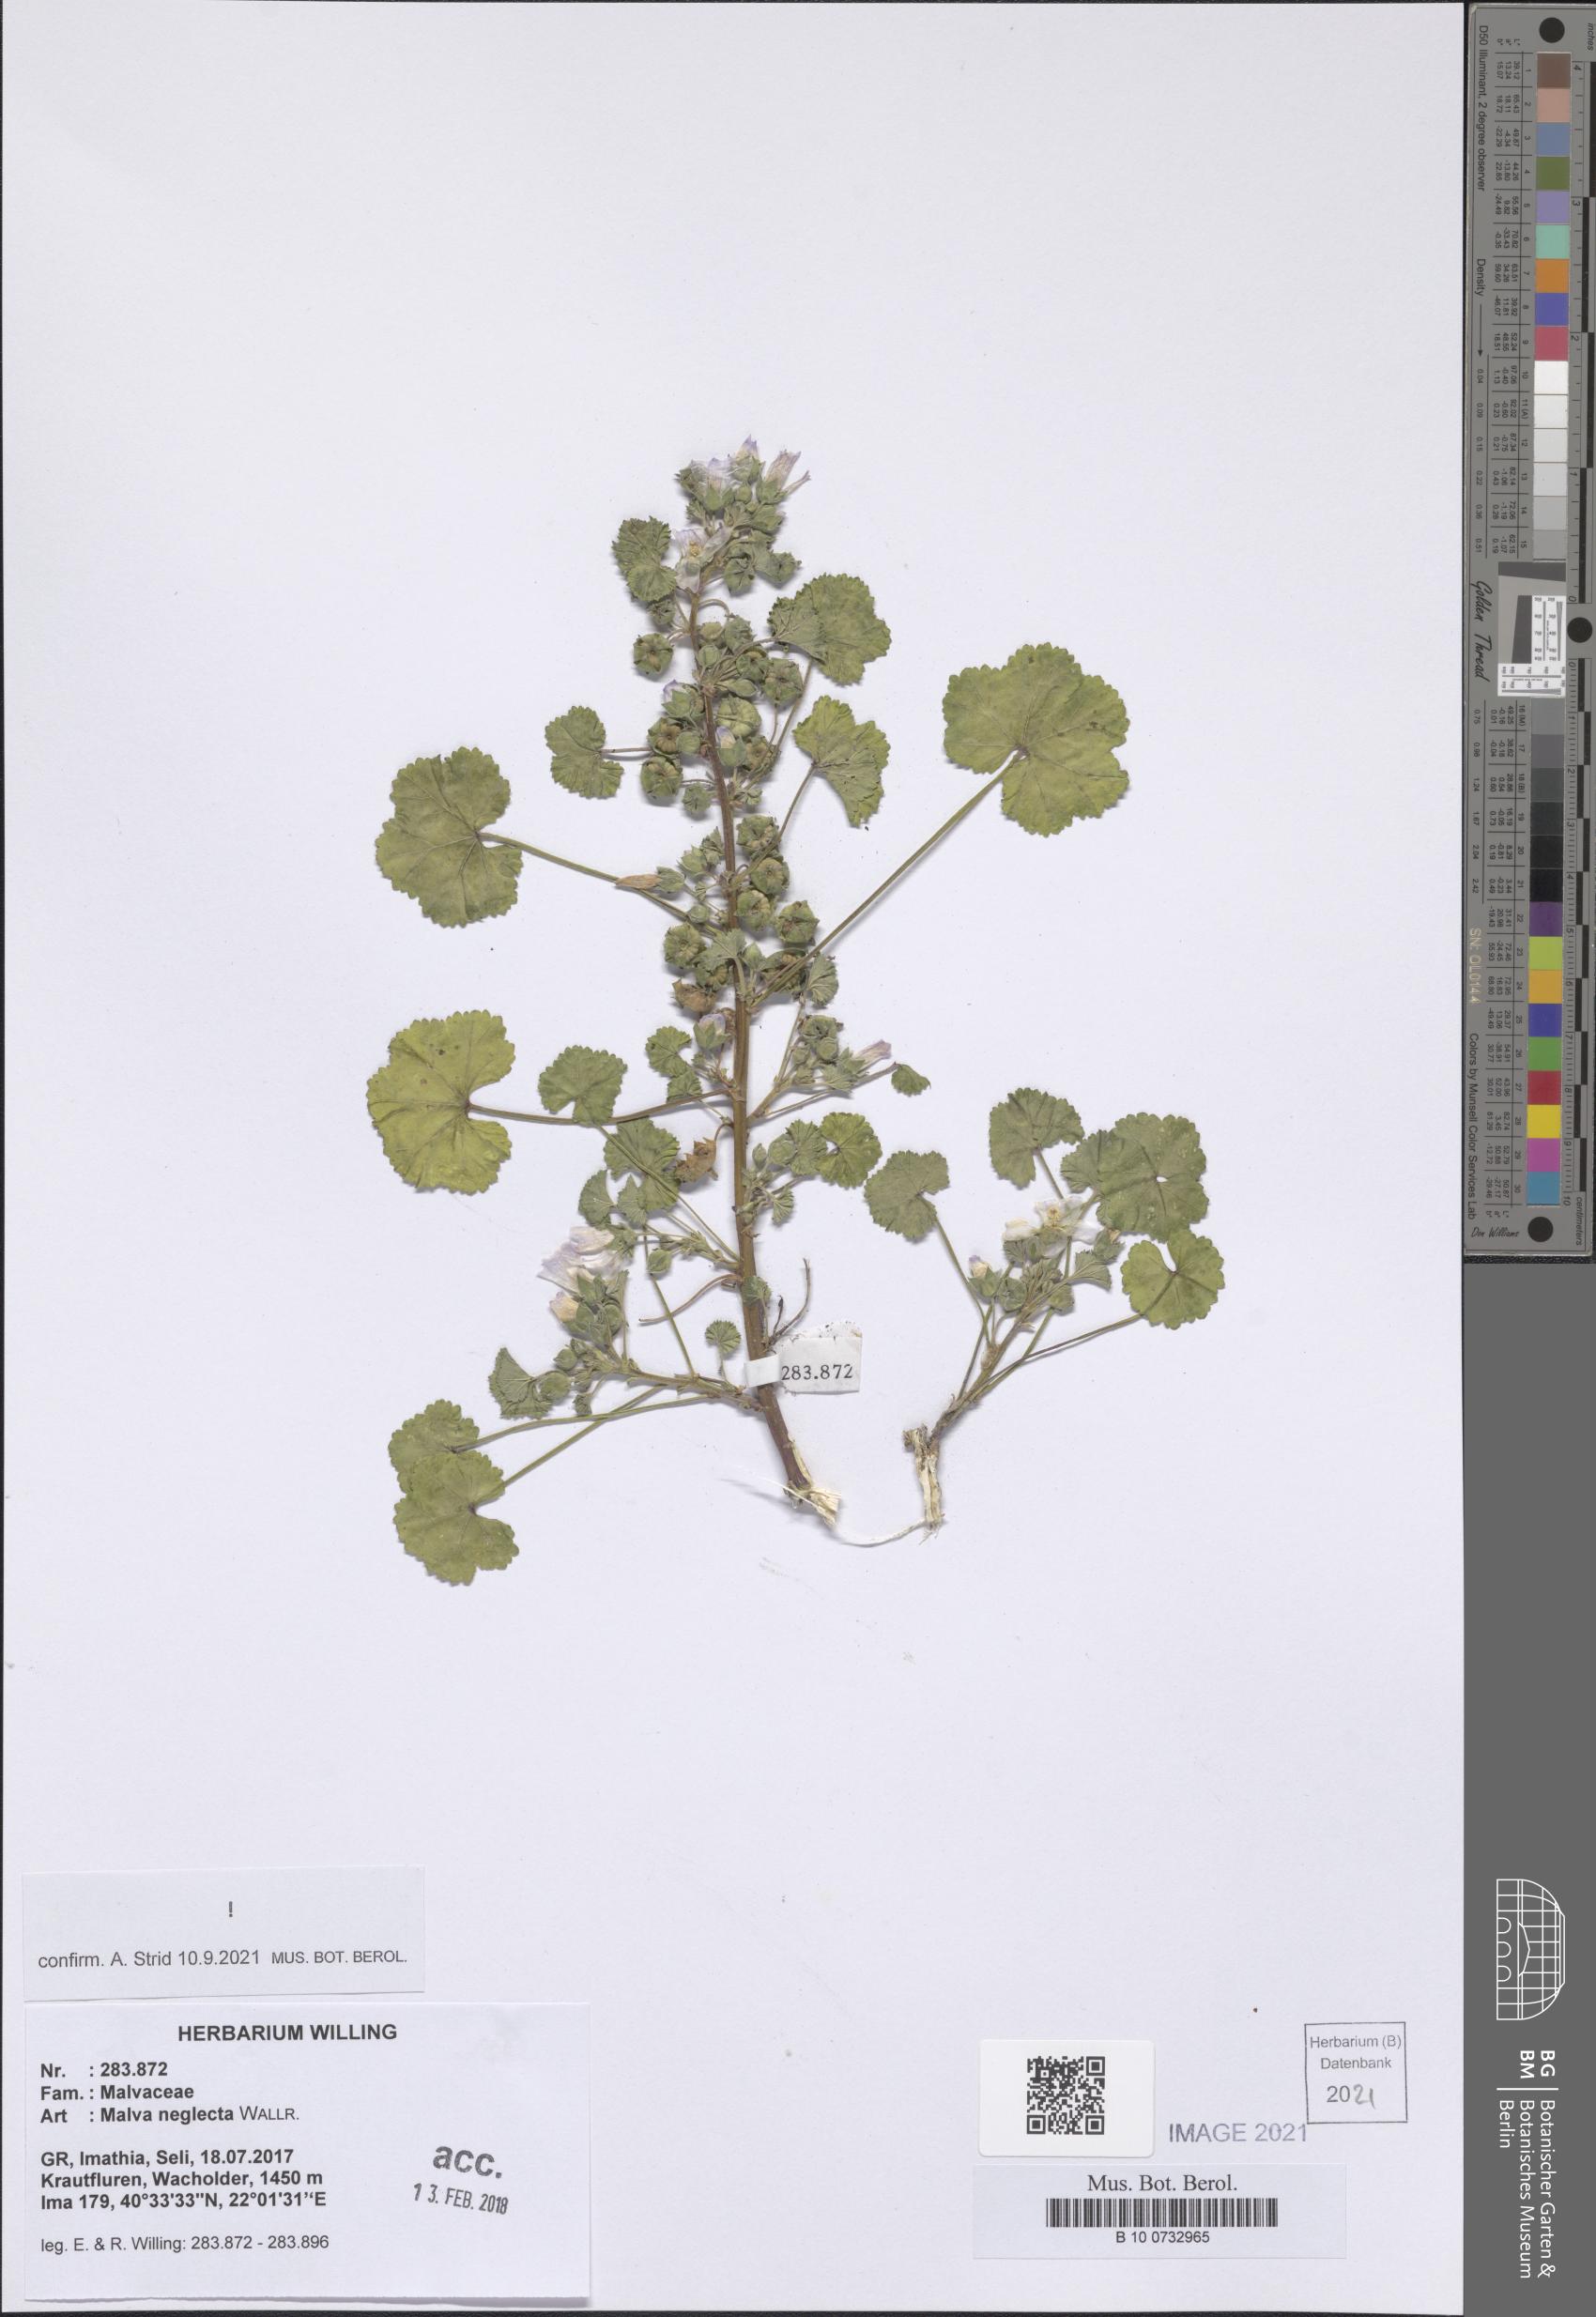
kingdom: Plantae
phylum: Tracheophyta
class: Magnoliopsida
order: Malvales
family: Malvaceae
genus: Malva
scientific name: Malva neglecta
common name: Common mallow
